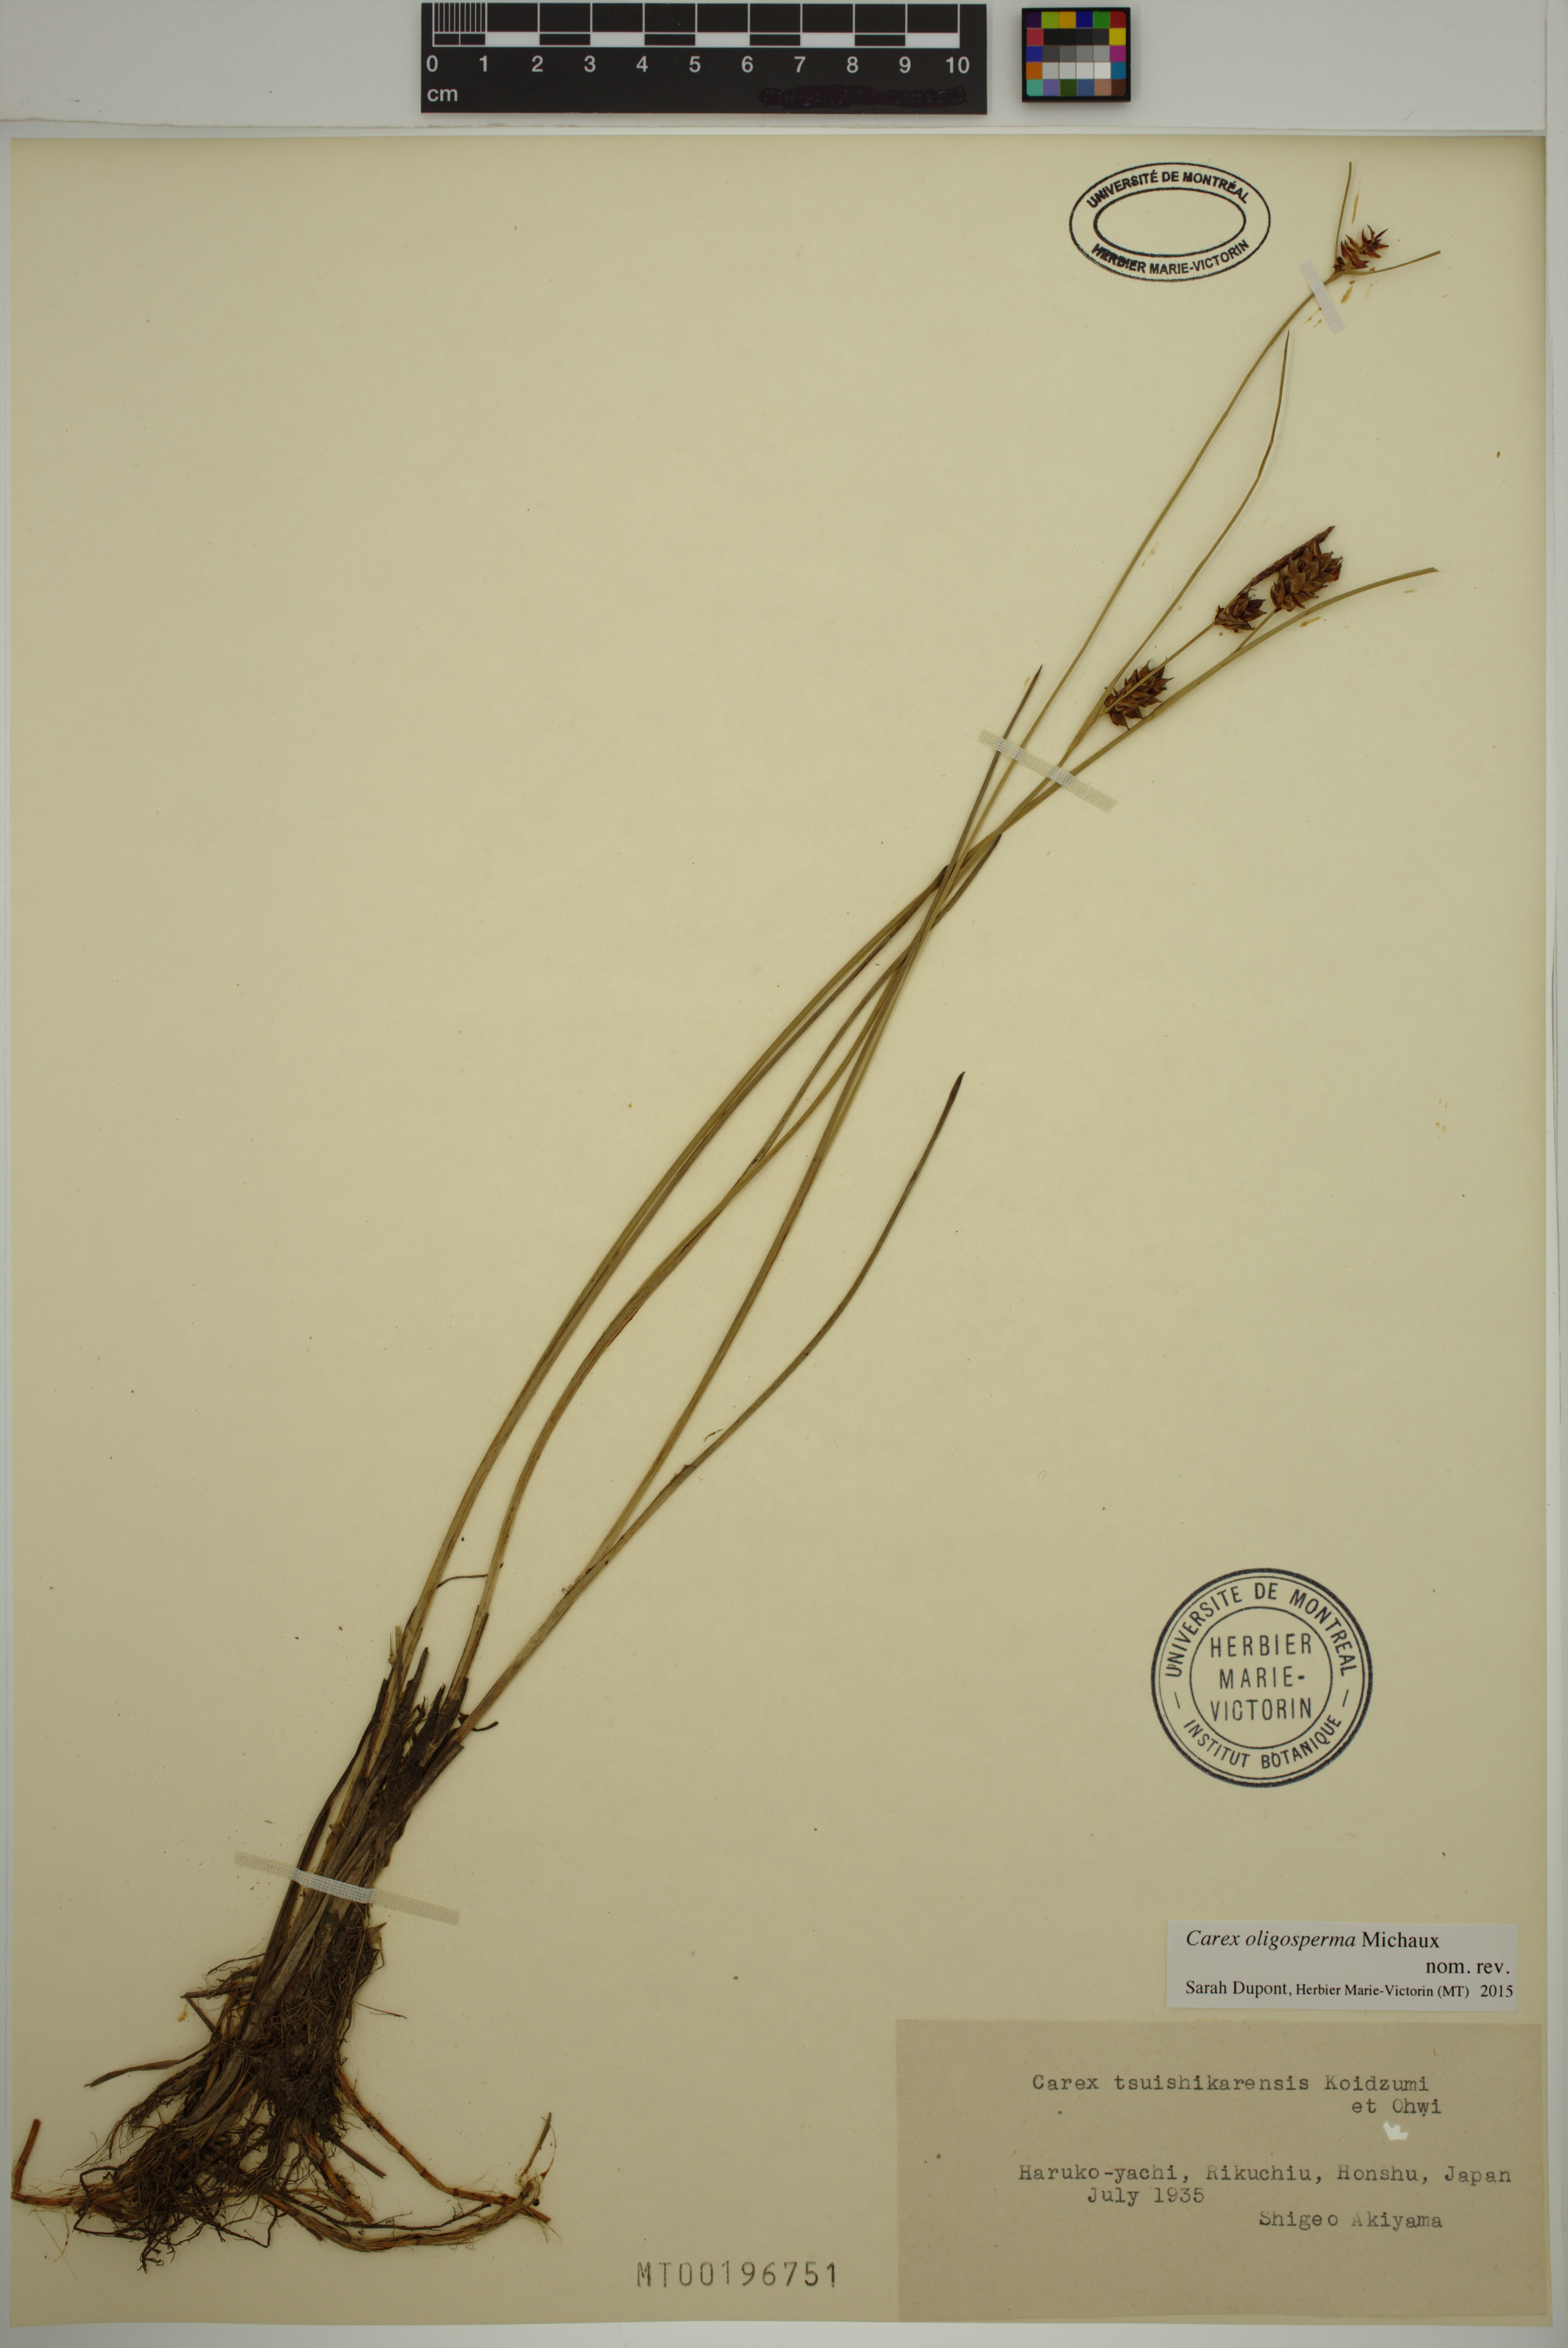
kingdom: Plantae
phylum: Tracheophyta
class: Liliopsida
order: Poales
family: Cyperaceae
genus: Carex
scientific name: Carex oligosperma
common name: Few-seed sedge
